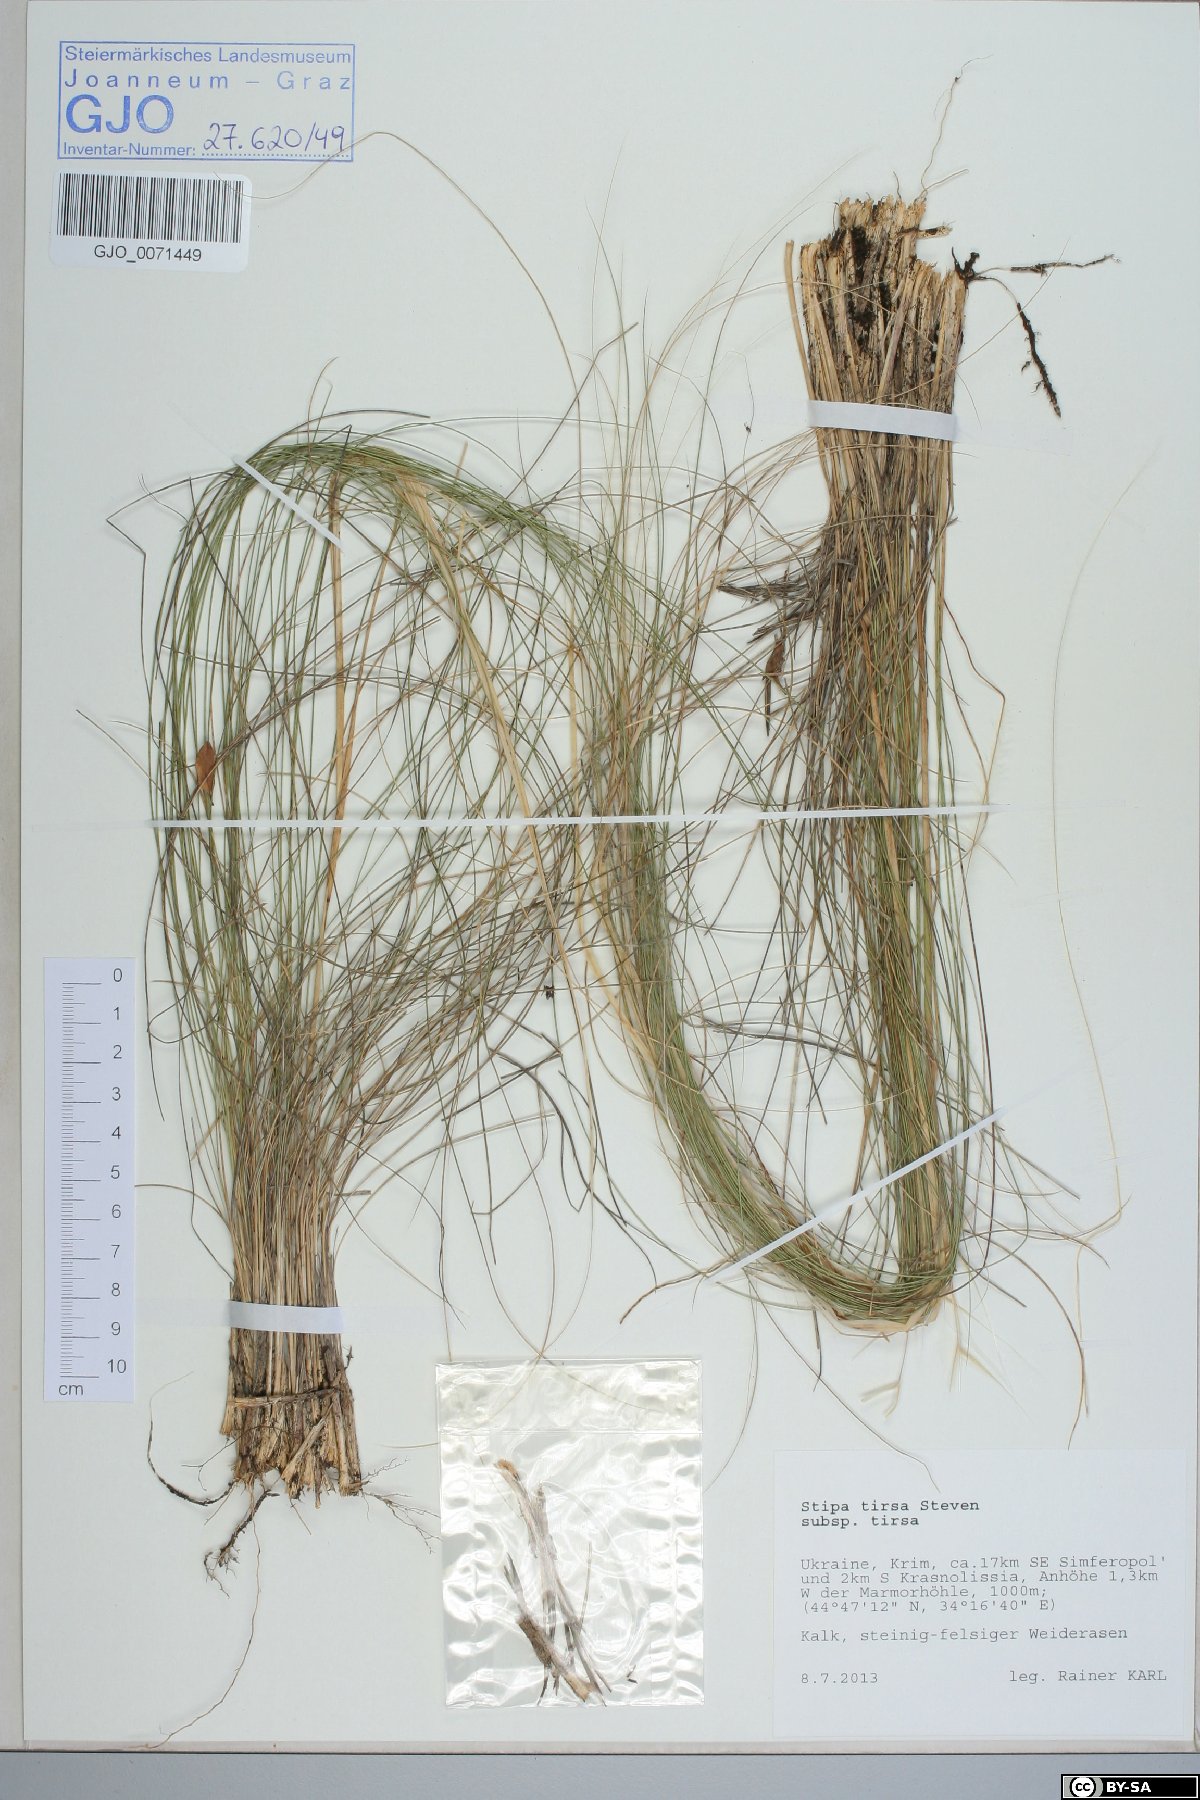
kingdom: Plantae
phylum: Tracheophyta
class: Liliopsida
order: Poales
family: Poaceae
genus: Stipa
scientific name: Stipa tirsa
